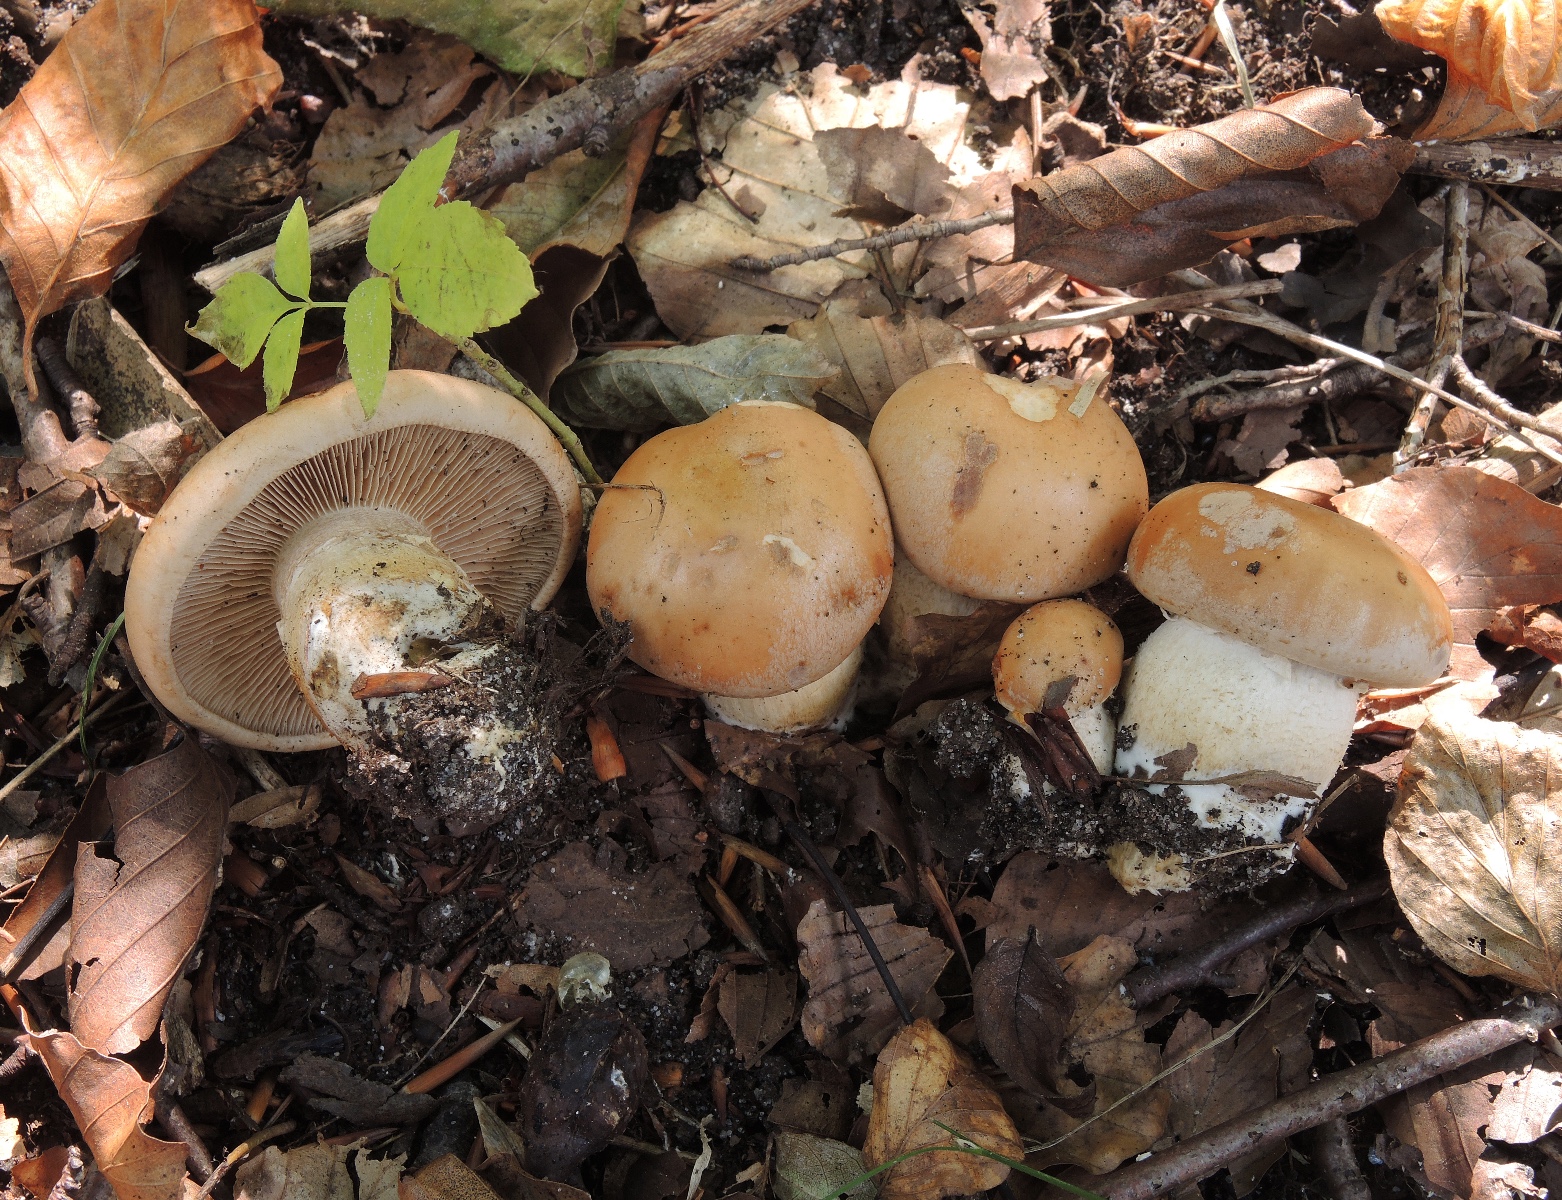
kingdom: Fungi
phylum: Basidiomycota
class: Agaricomycetes
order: Agaricales
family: Hymenogastraceae
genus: Hebeloma
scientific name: Hebeloma laterinum
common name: kakao-tåreblad
